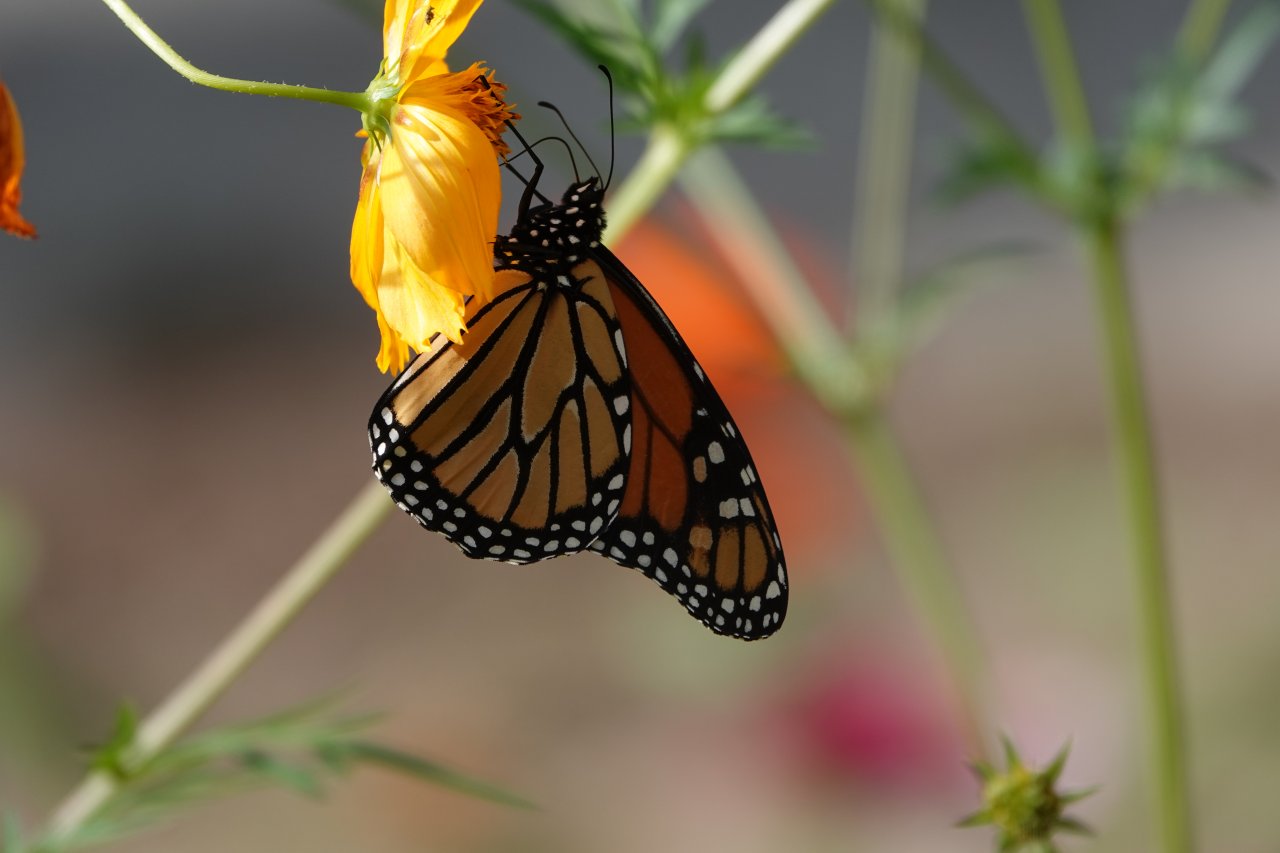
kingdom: Animalia
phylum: Arthropoda
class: Insecta
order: Lepidoptera
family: Nymphalidae
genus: Danaus
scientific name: Danaus plexippus
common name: Monarch
